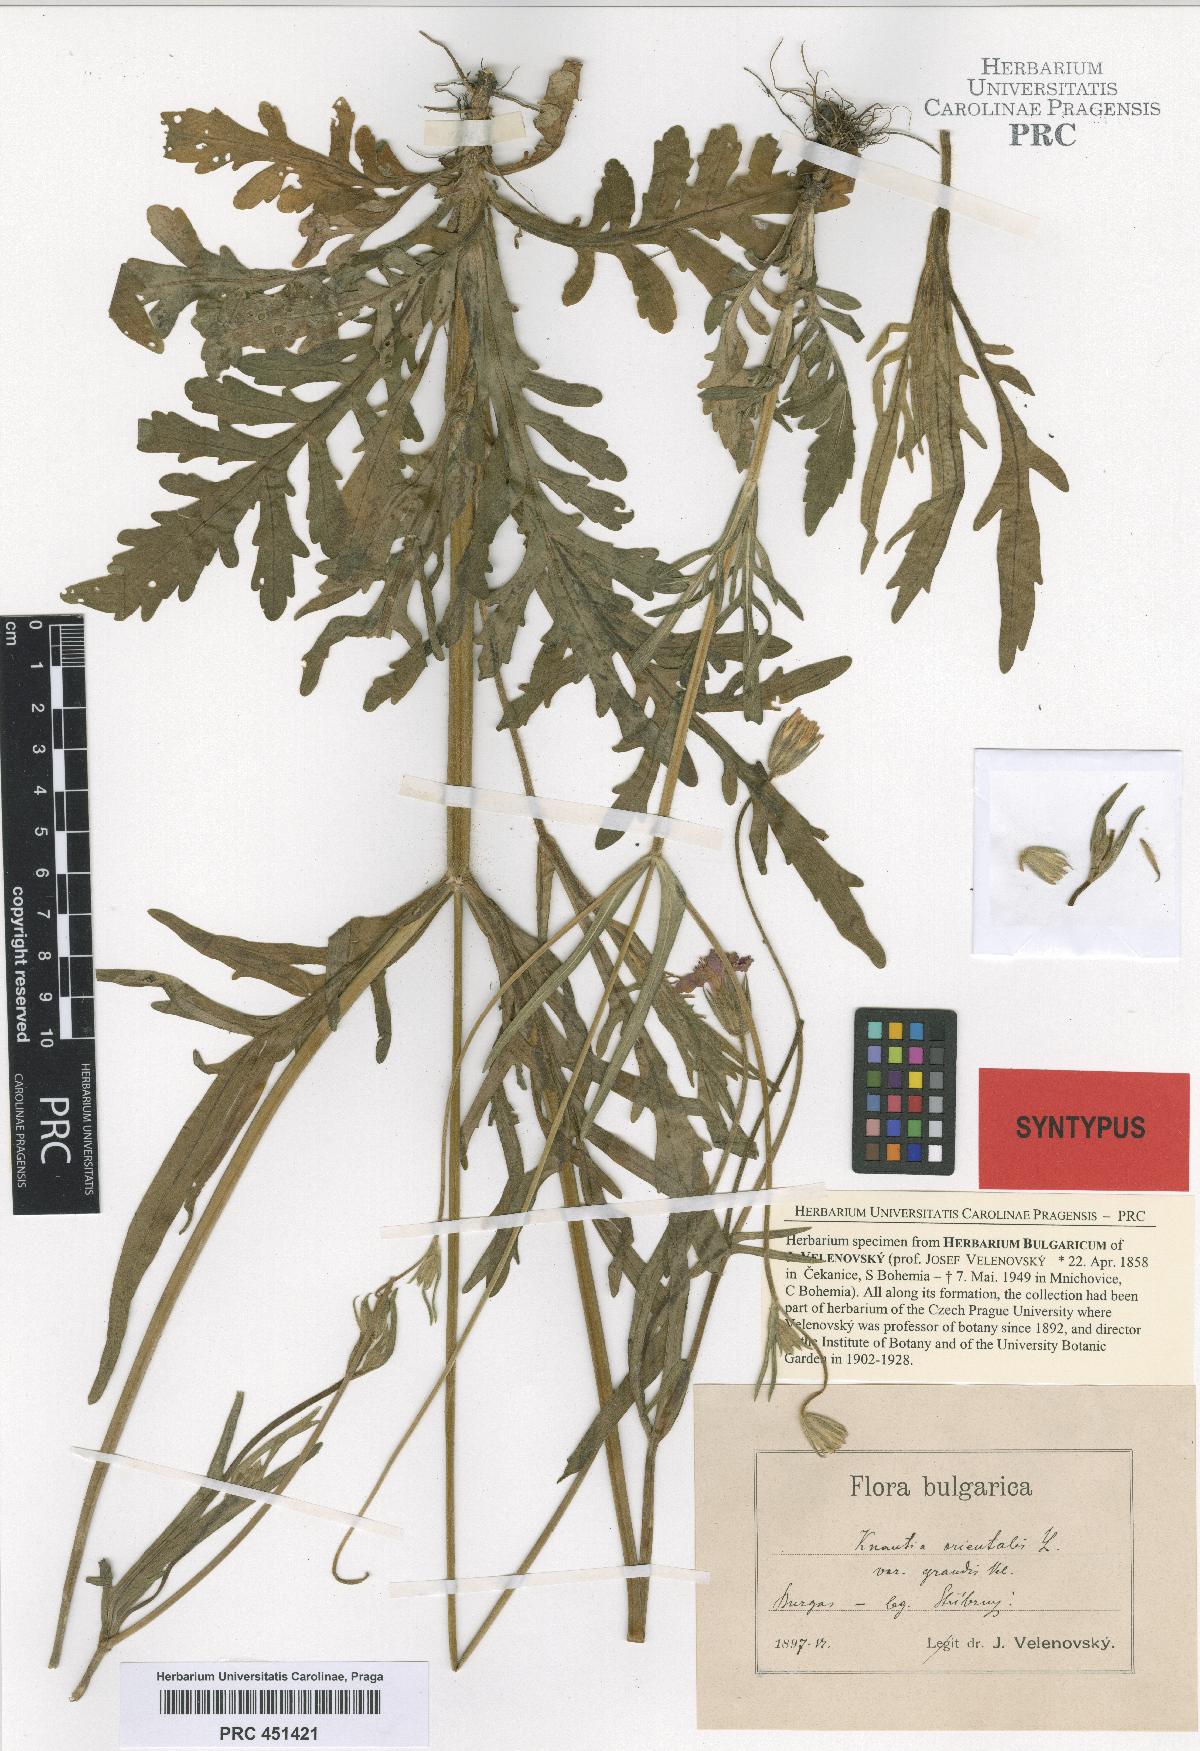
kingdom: Plantae
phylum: Tracheophyta
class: Magnoliopsida
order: Dipsacales
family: Caprifoliaceae
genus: Knautia
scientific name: Knautia orientalis
